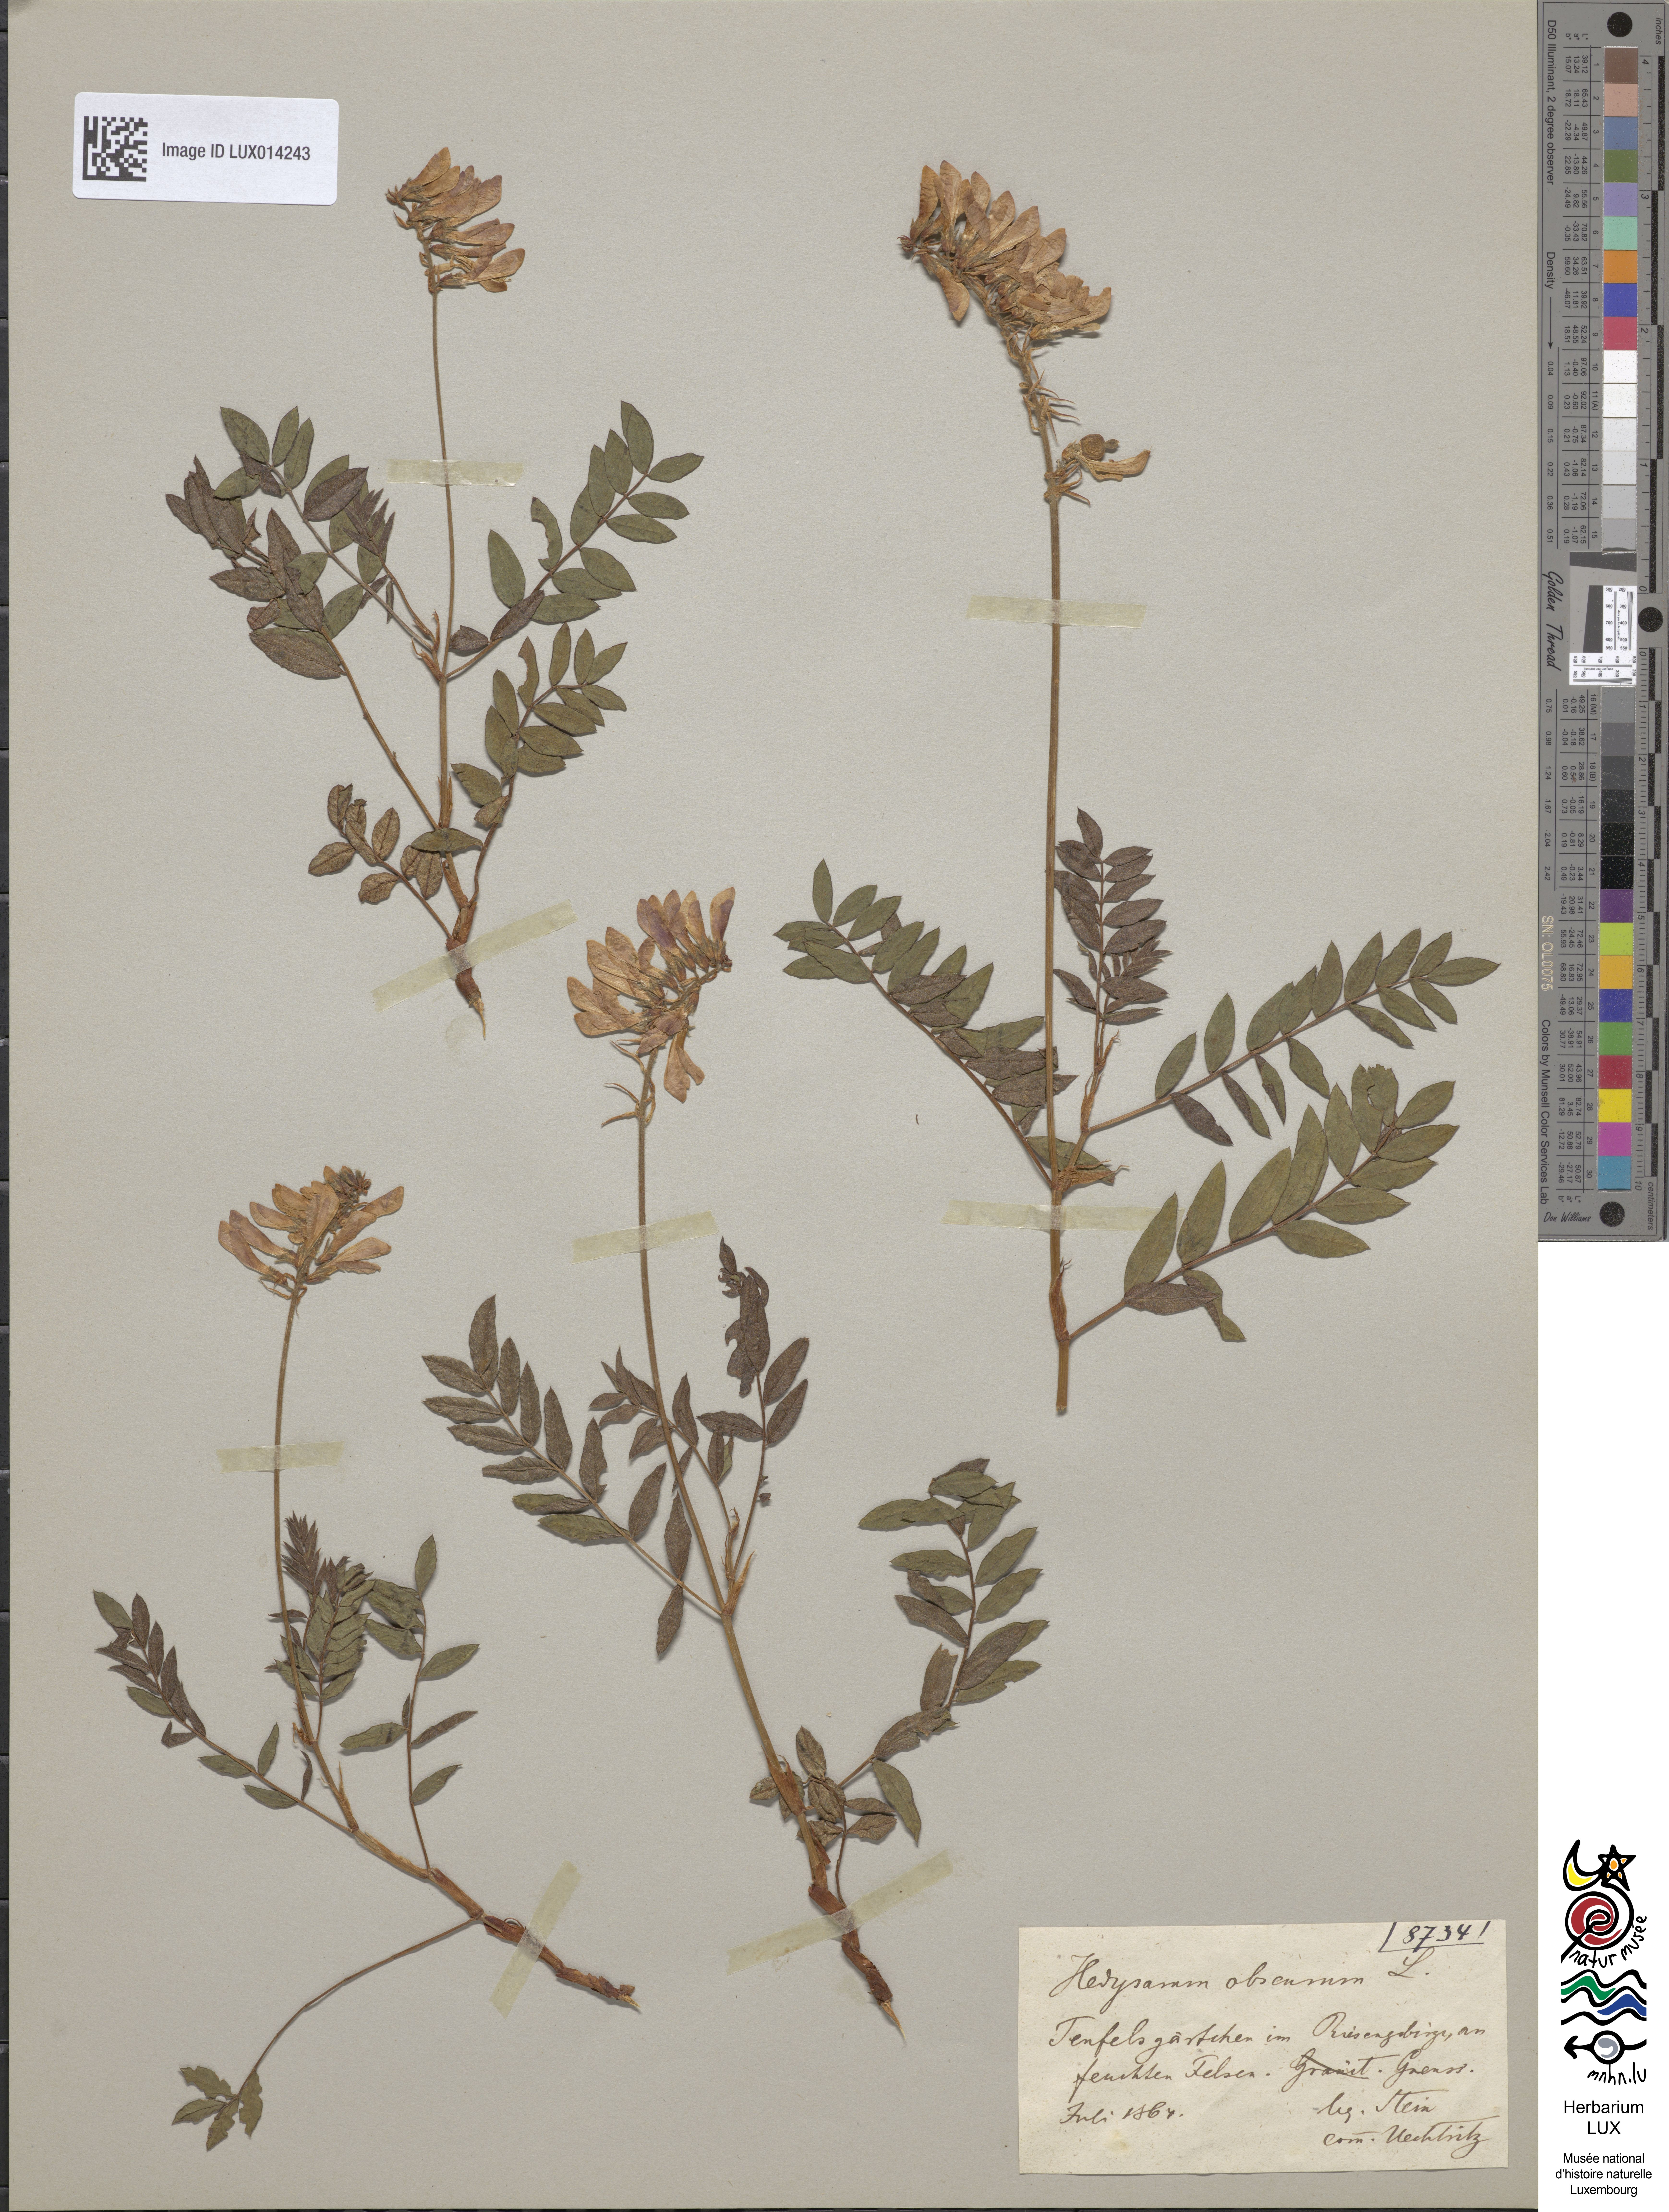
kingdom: Plantae
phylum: Tracheophyta
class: Magnoliopsida
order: Fabales
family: Fabaceae
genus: Hedysarum
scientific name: Hedysarum hedysaroides
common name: Alpine french-honeysuckle
